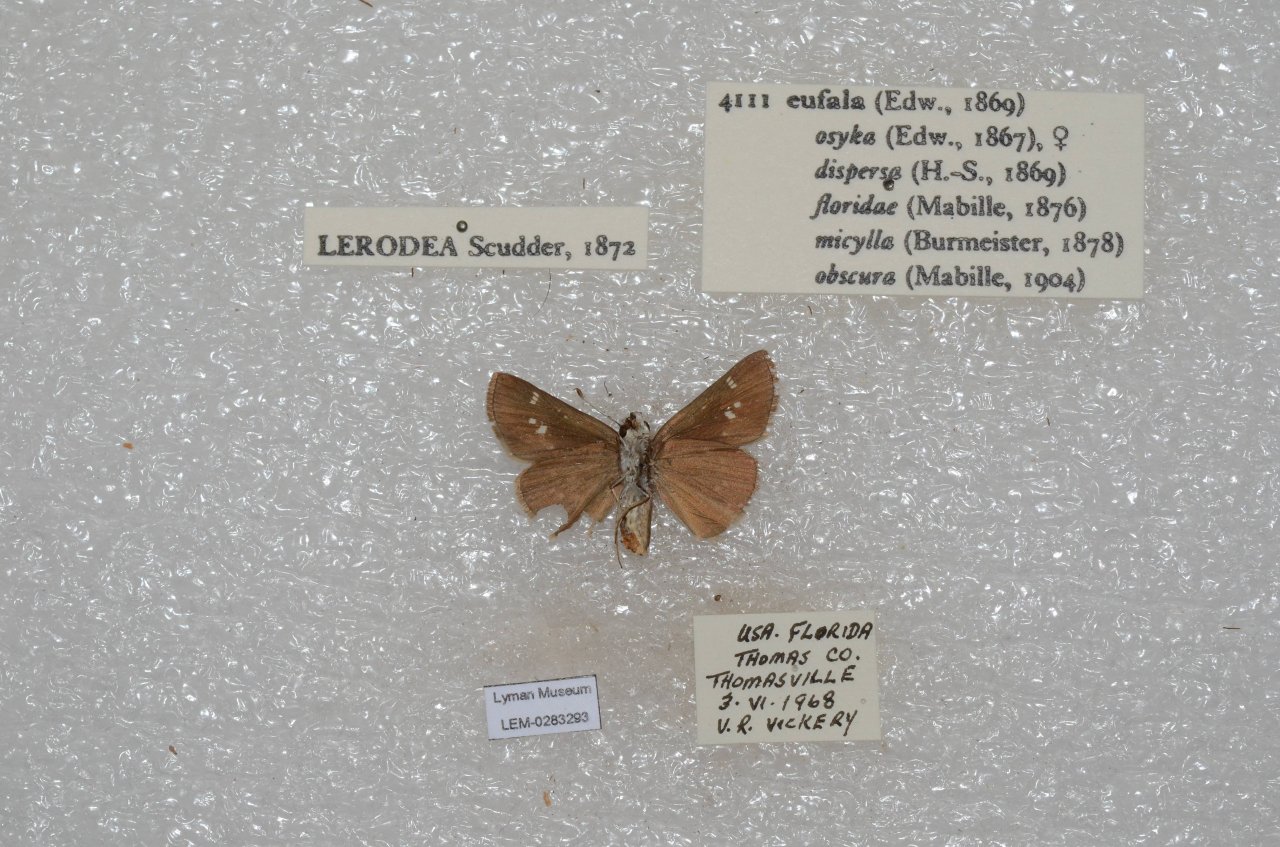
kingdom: Animalia
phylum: Arthropoda
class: Insecta
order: Lepidoptera
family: Hesperiidae
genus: Lerodea
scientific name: Lerodea eufala
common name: Eufala Skipper
